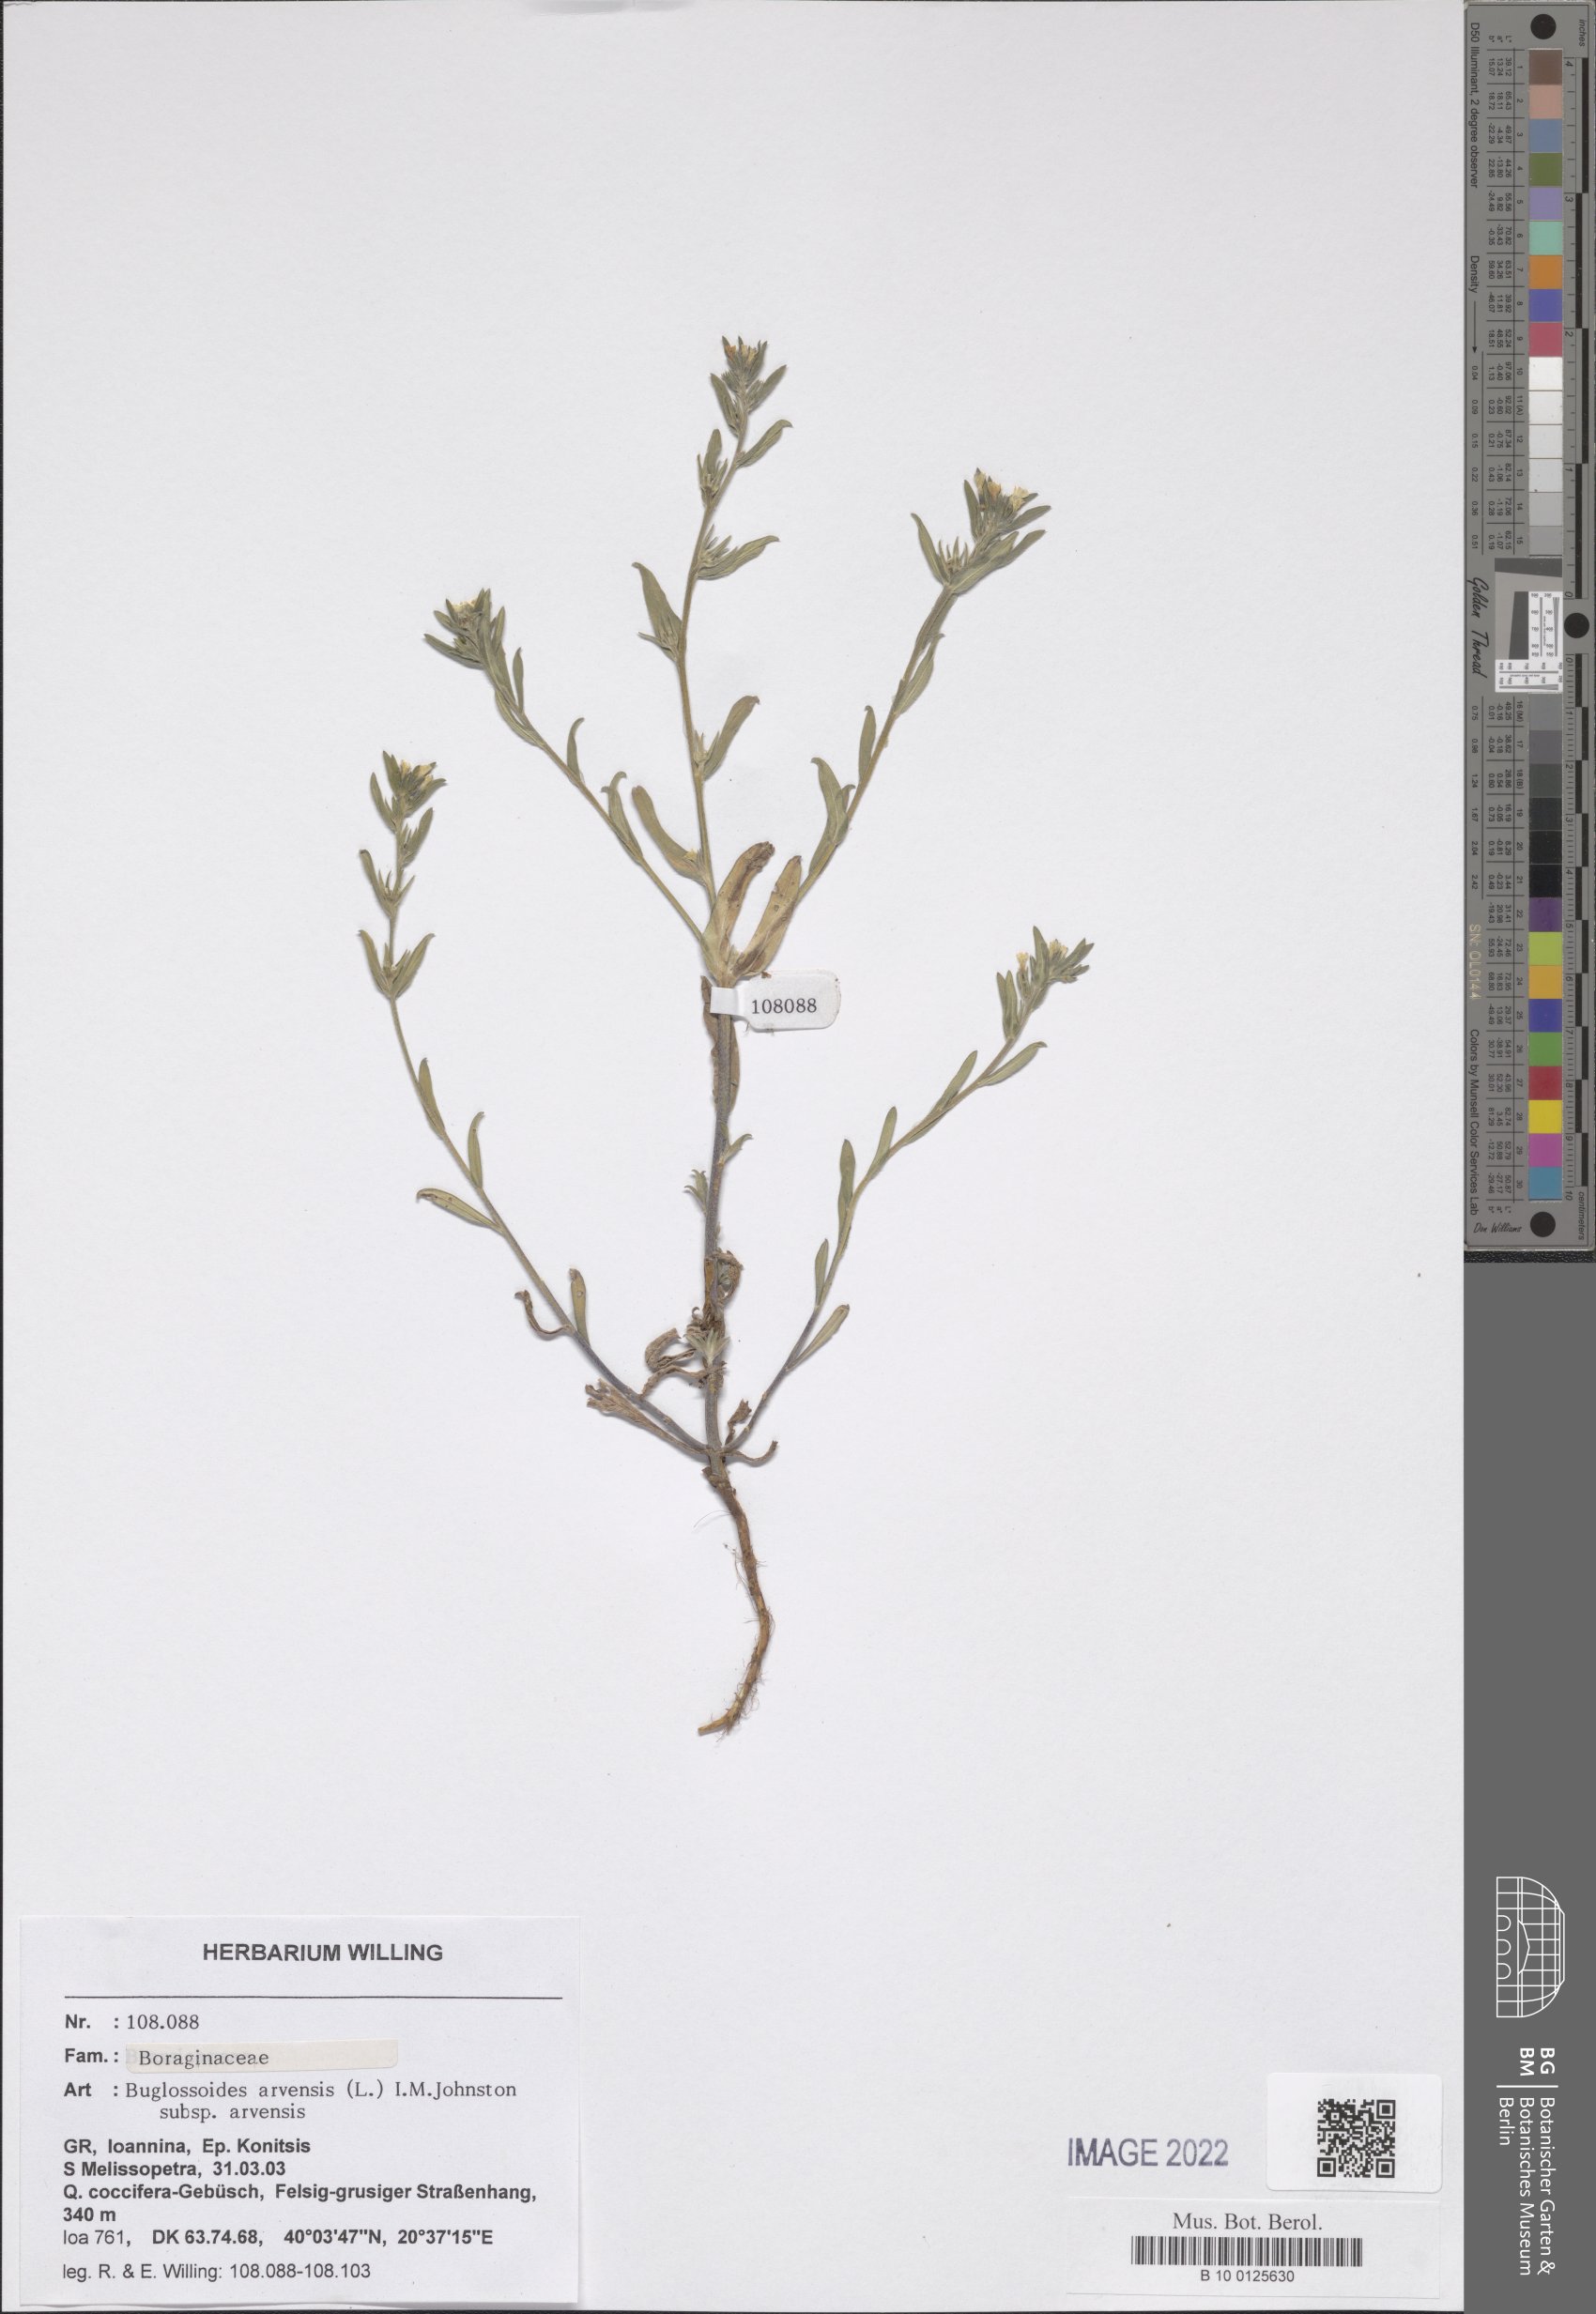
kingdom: Plantae
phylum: Tracheophyta
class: Magnoliopsida
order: Boraginales
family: Boraginaceae
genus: Buglossoides
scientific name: Buglossoides arvensis
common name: Corn gromwell
